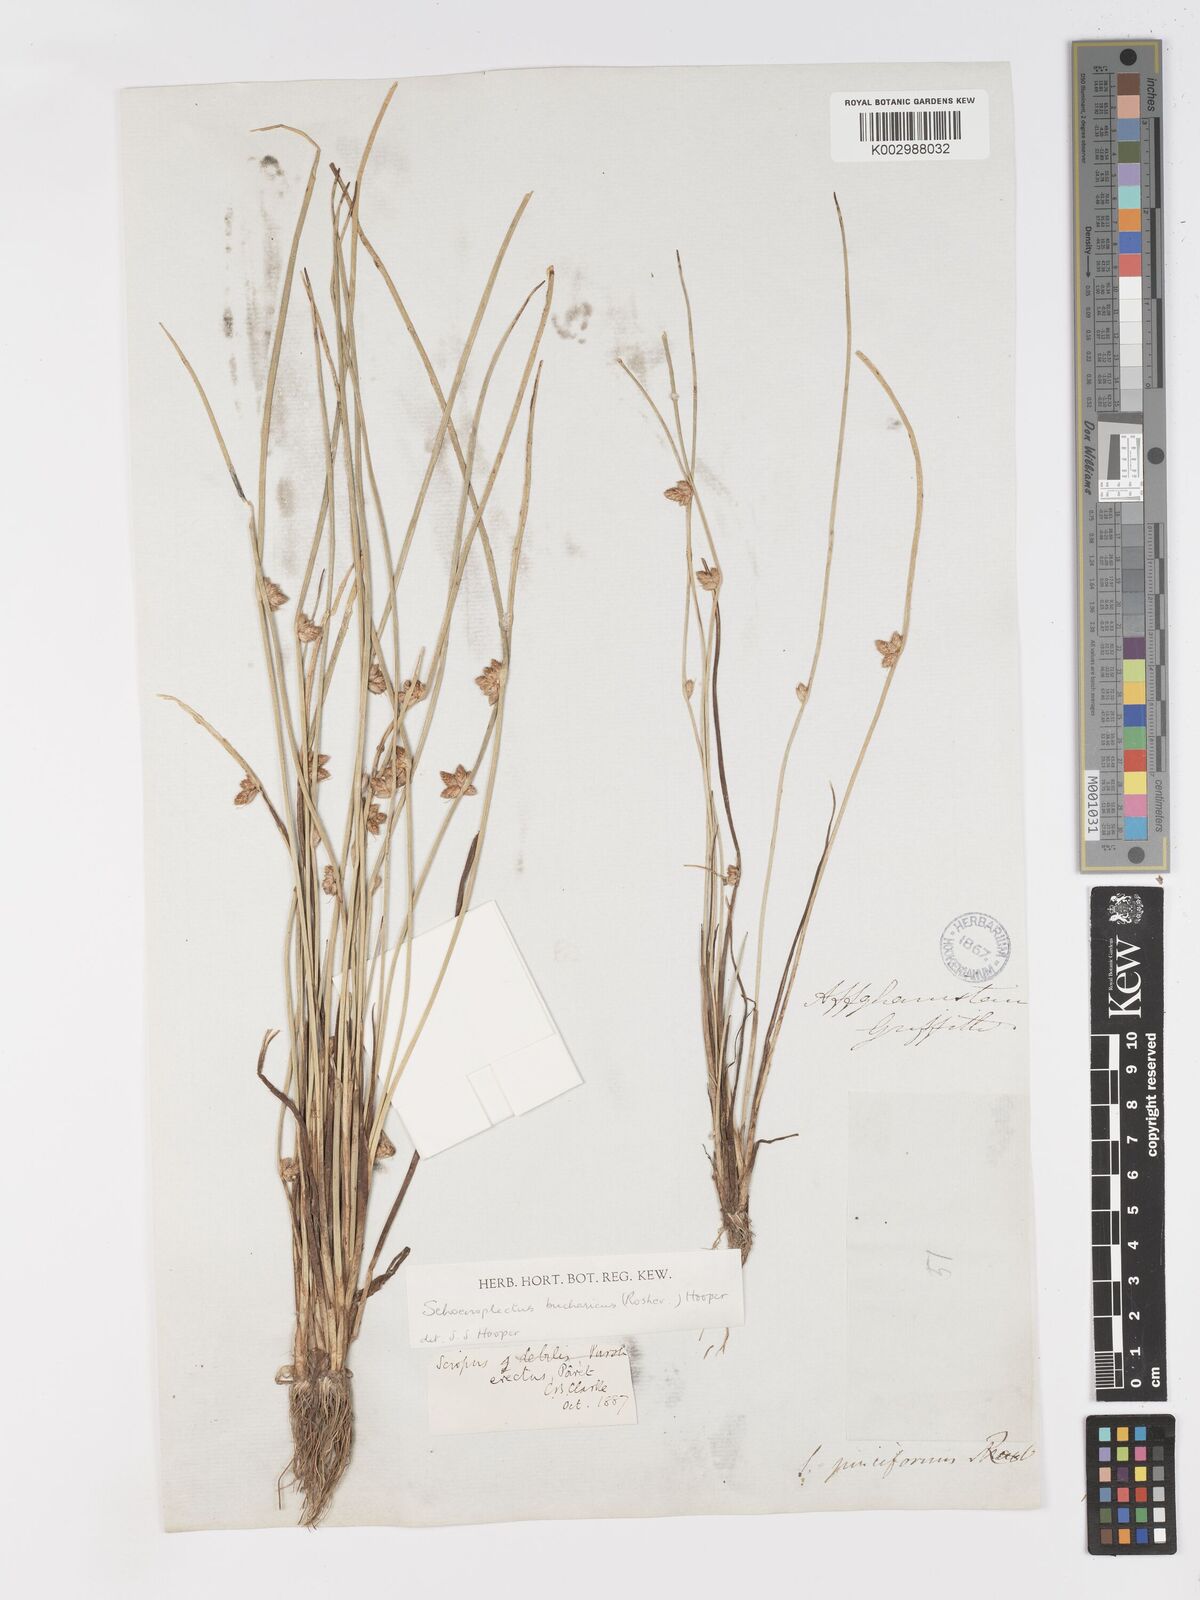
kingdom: Plantae
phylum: Tracheophyta
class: Liliopsida
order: Poales
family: Cyperaceae
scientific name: Cyperaceae
